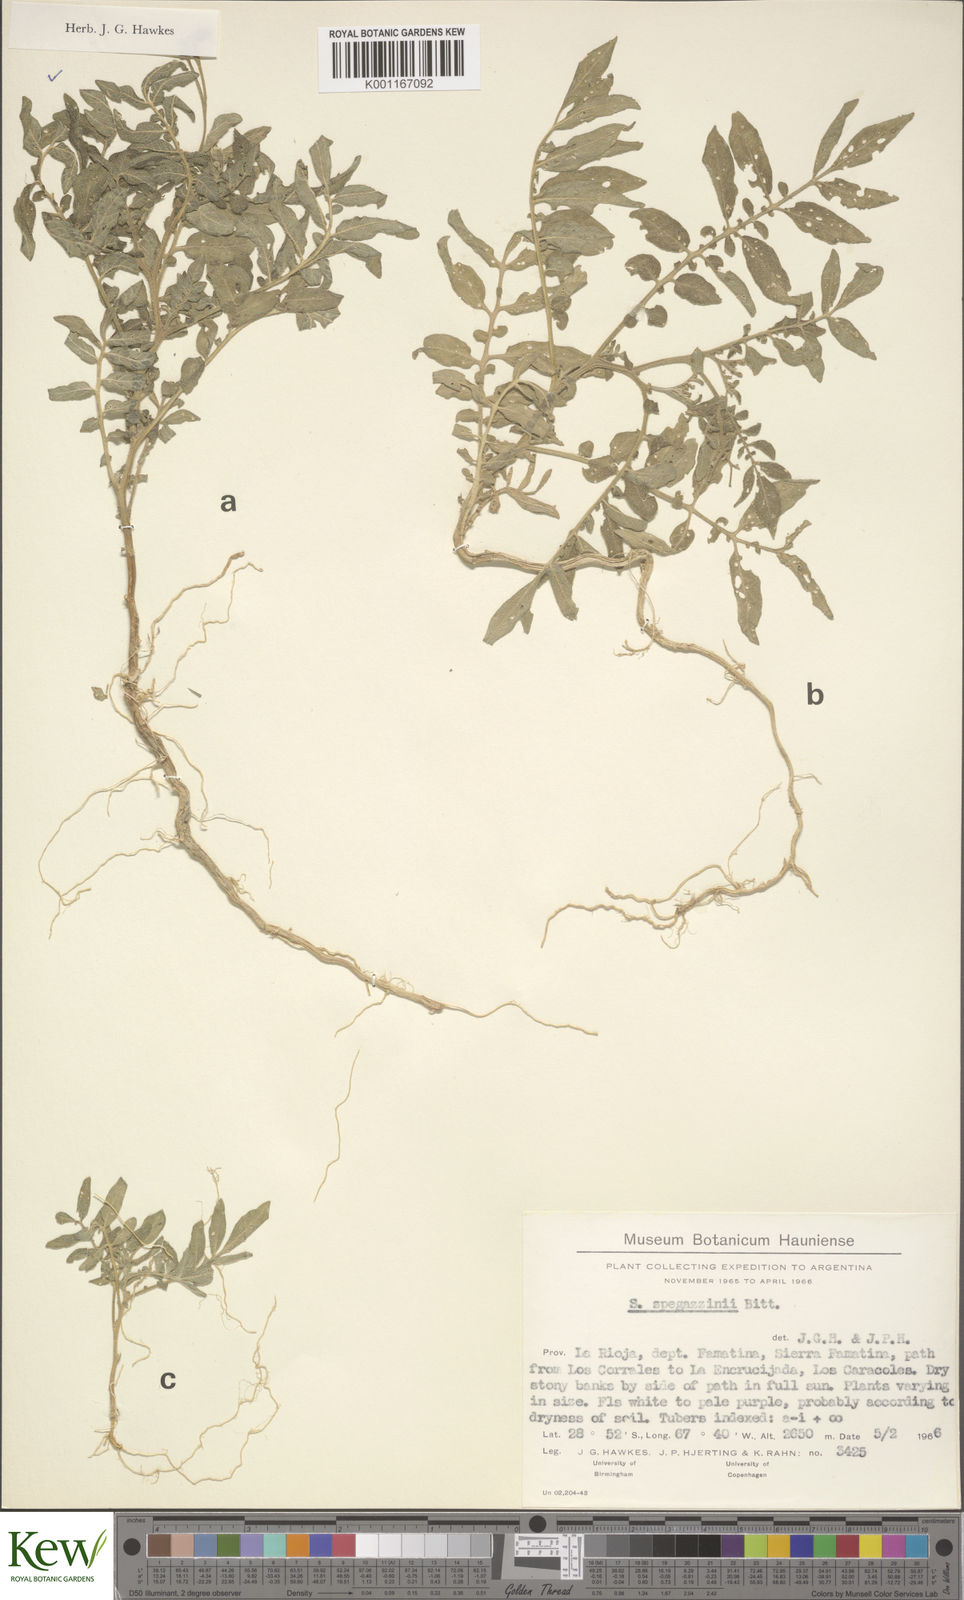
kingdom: Plantae
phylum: Tracheophyta
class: Magnoliopsida
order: Solanales
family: Solanaceae
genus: Solanum
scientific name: Solanum brevicaule
